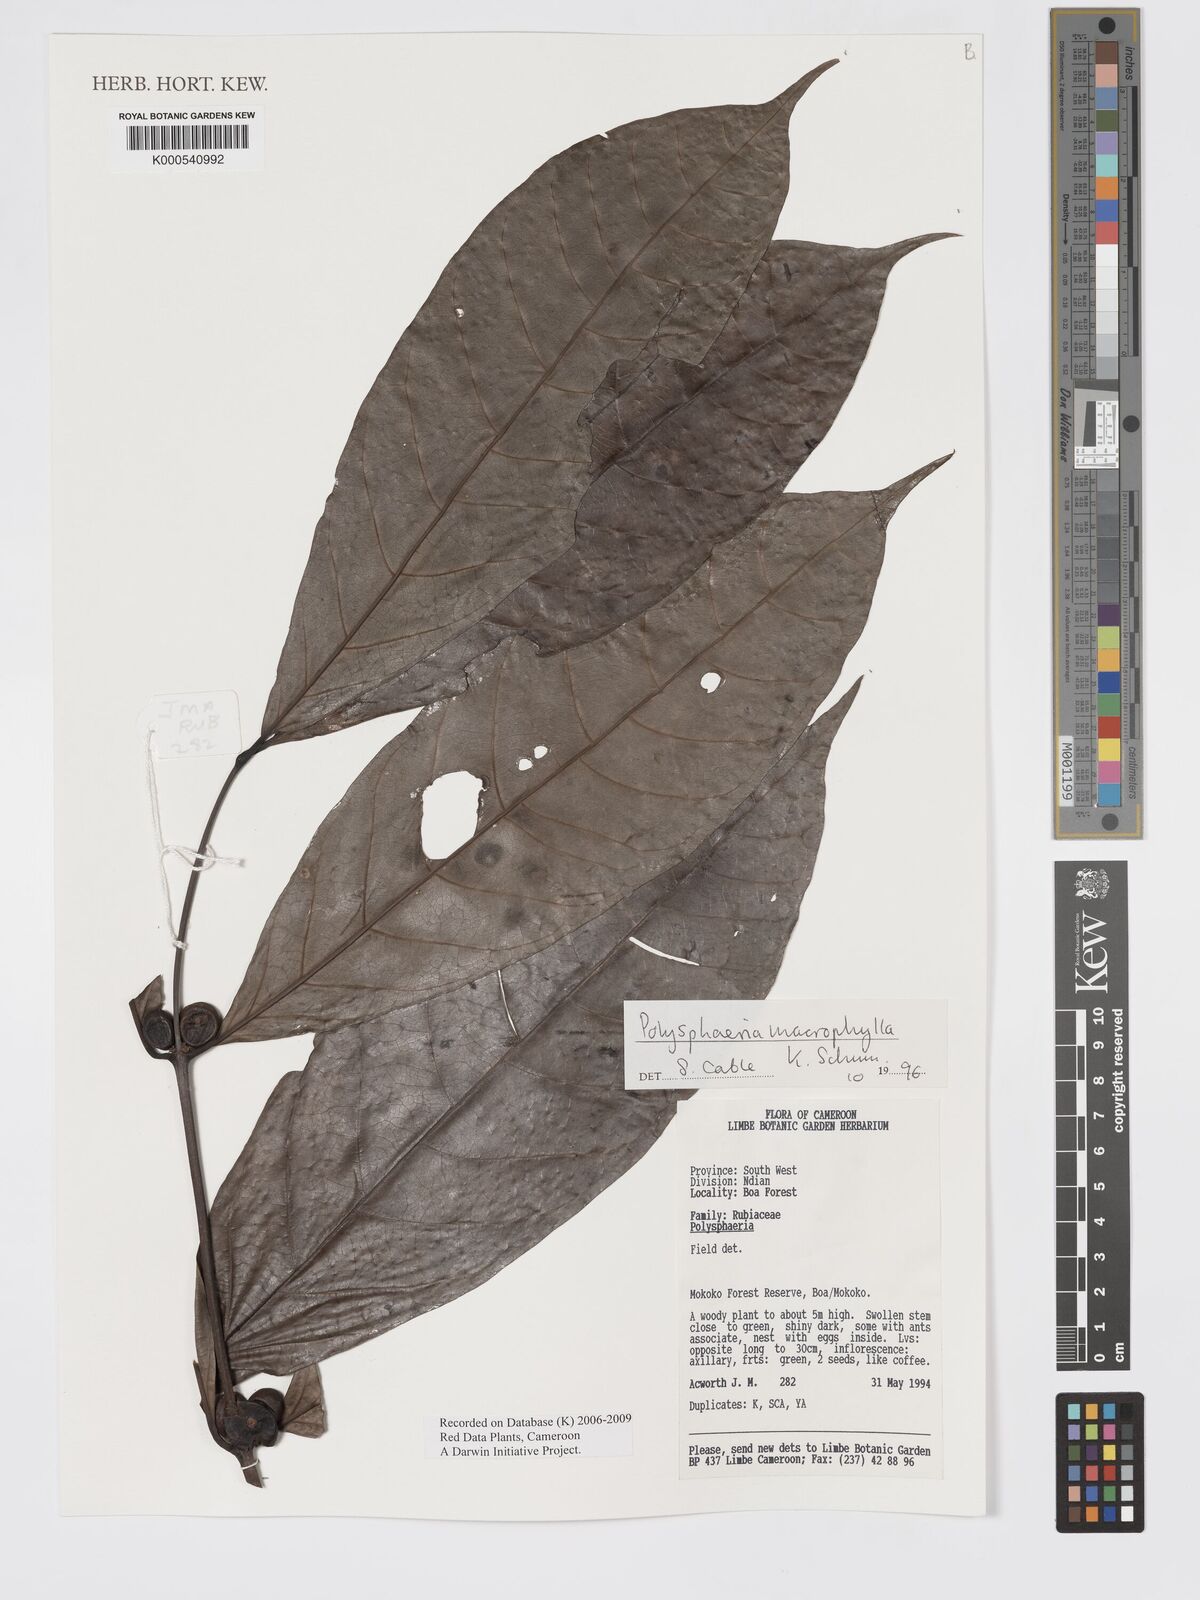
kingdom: Plantae
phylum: Tracheophyta
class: Magnoliopsida
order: Gentianales
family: Rubiaceae
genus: Polysphaeria
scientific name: Polysphaeria macrophylla
